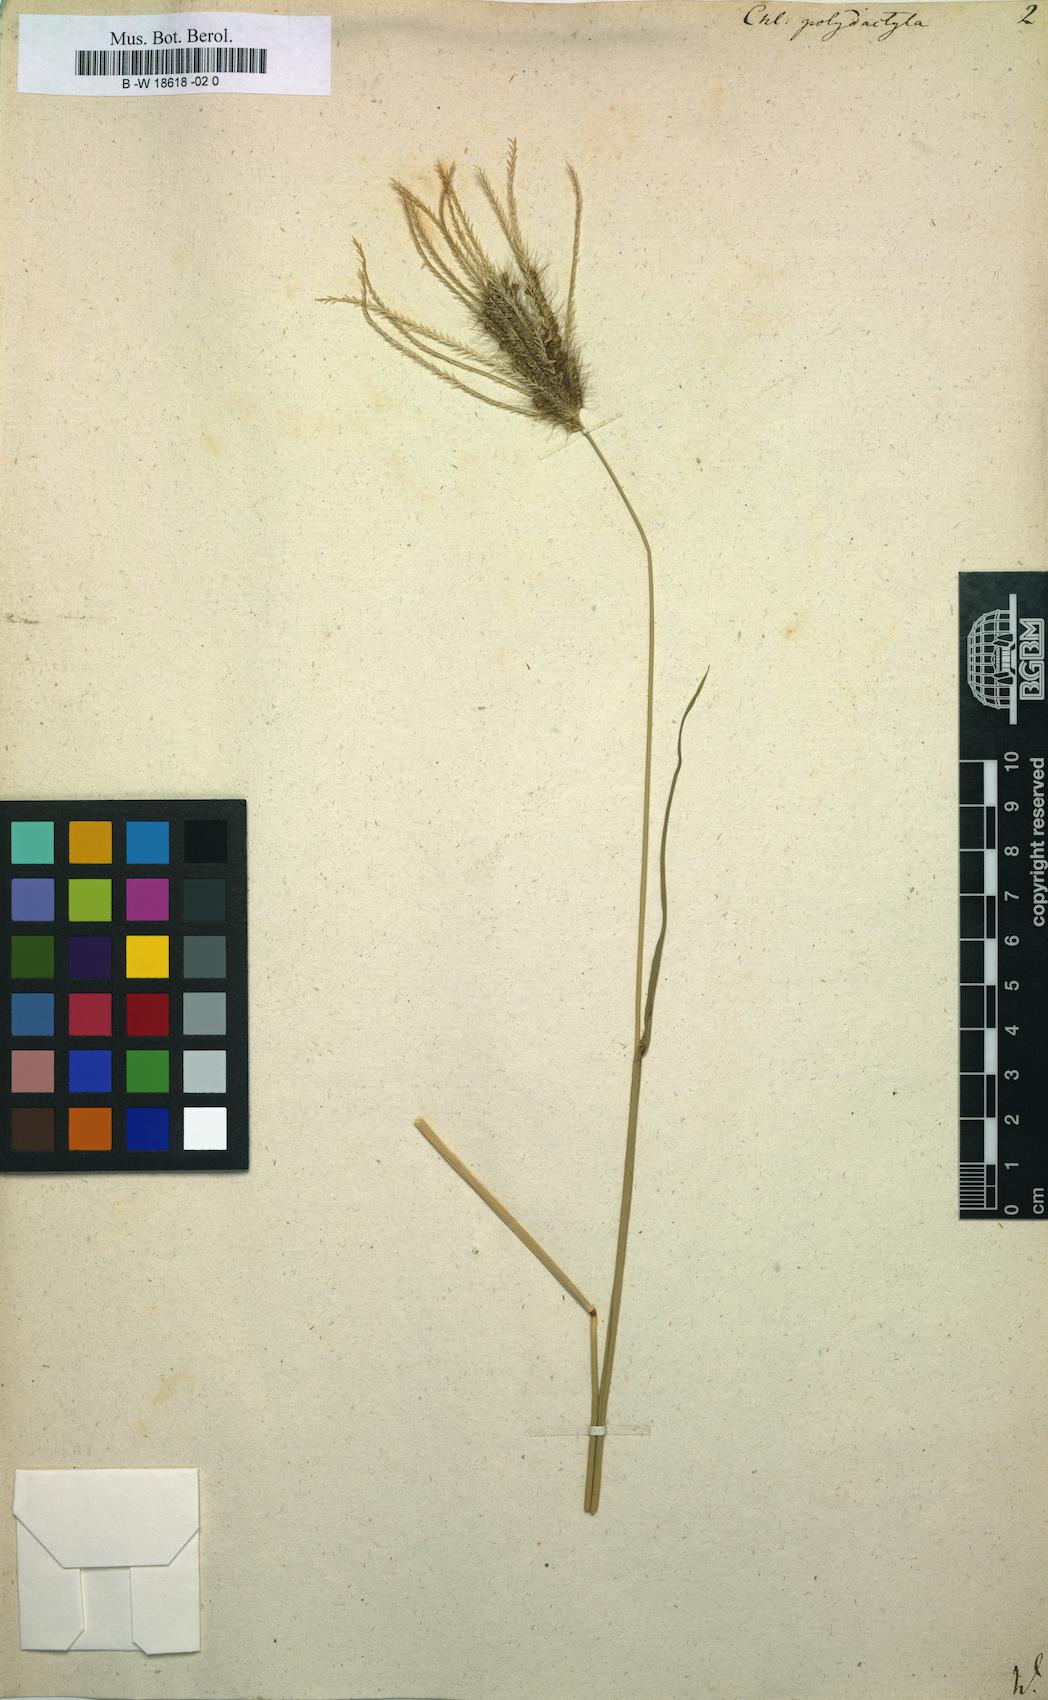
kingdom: Plantae
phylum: Tracheophyta
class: Liliopsida
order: Poales
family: Poaceae
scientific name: Poaceae
